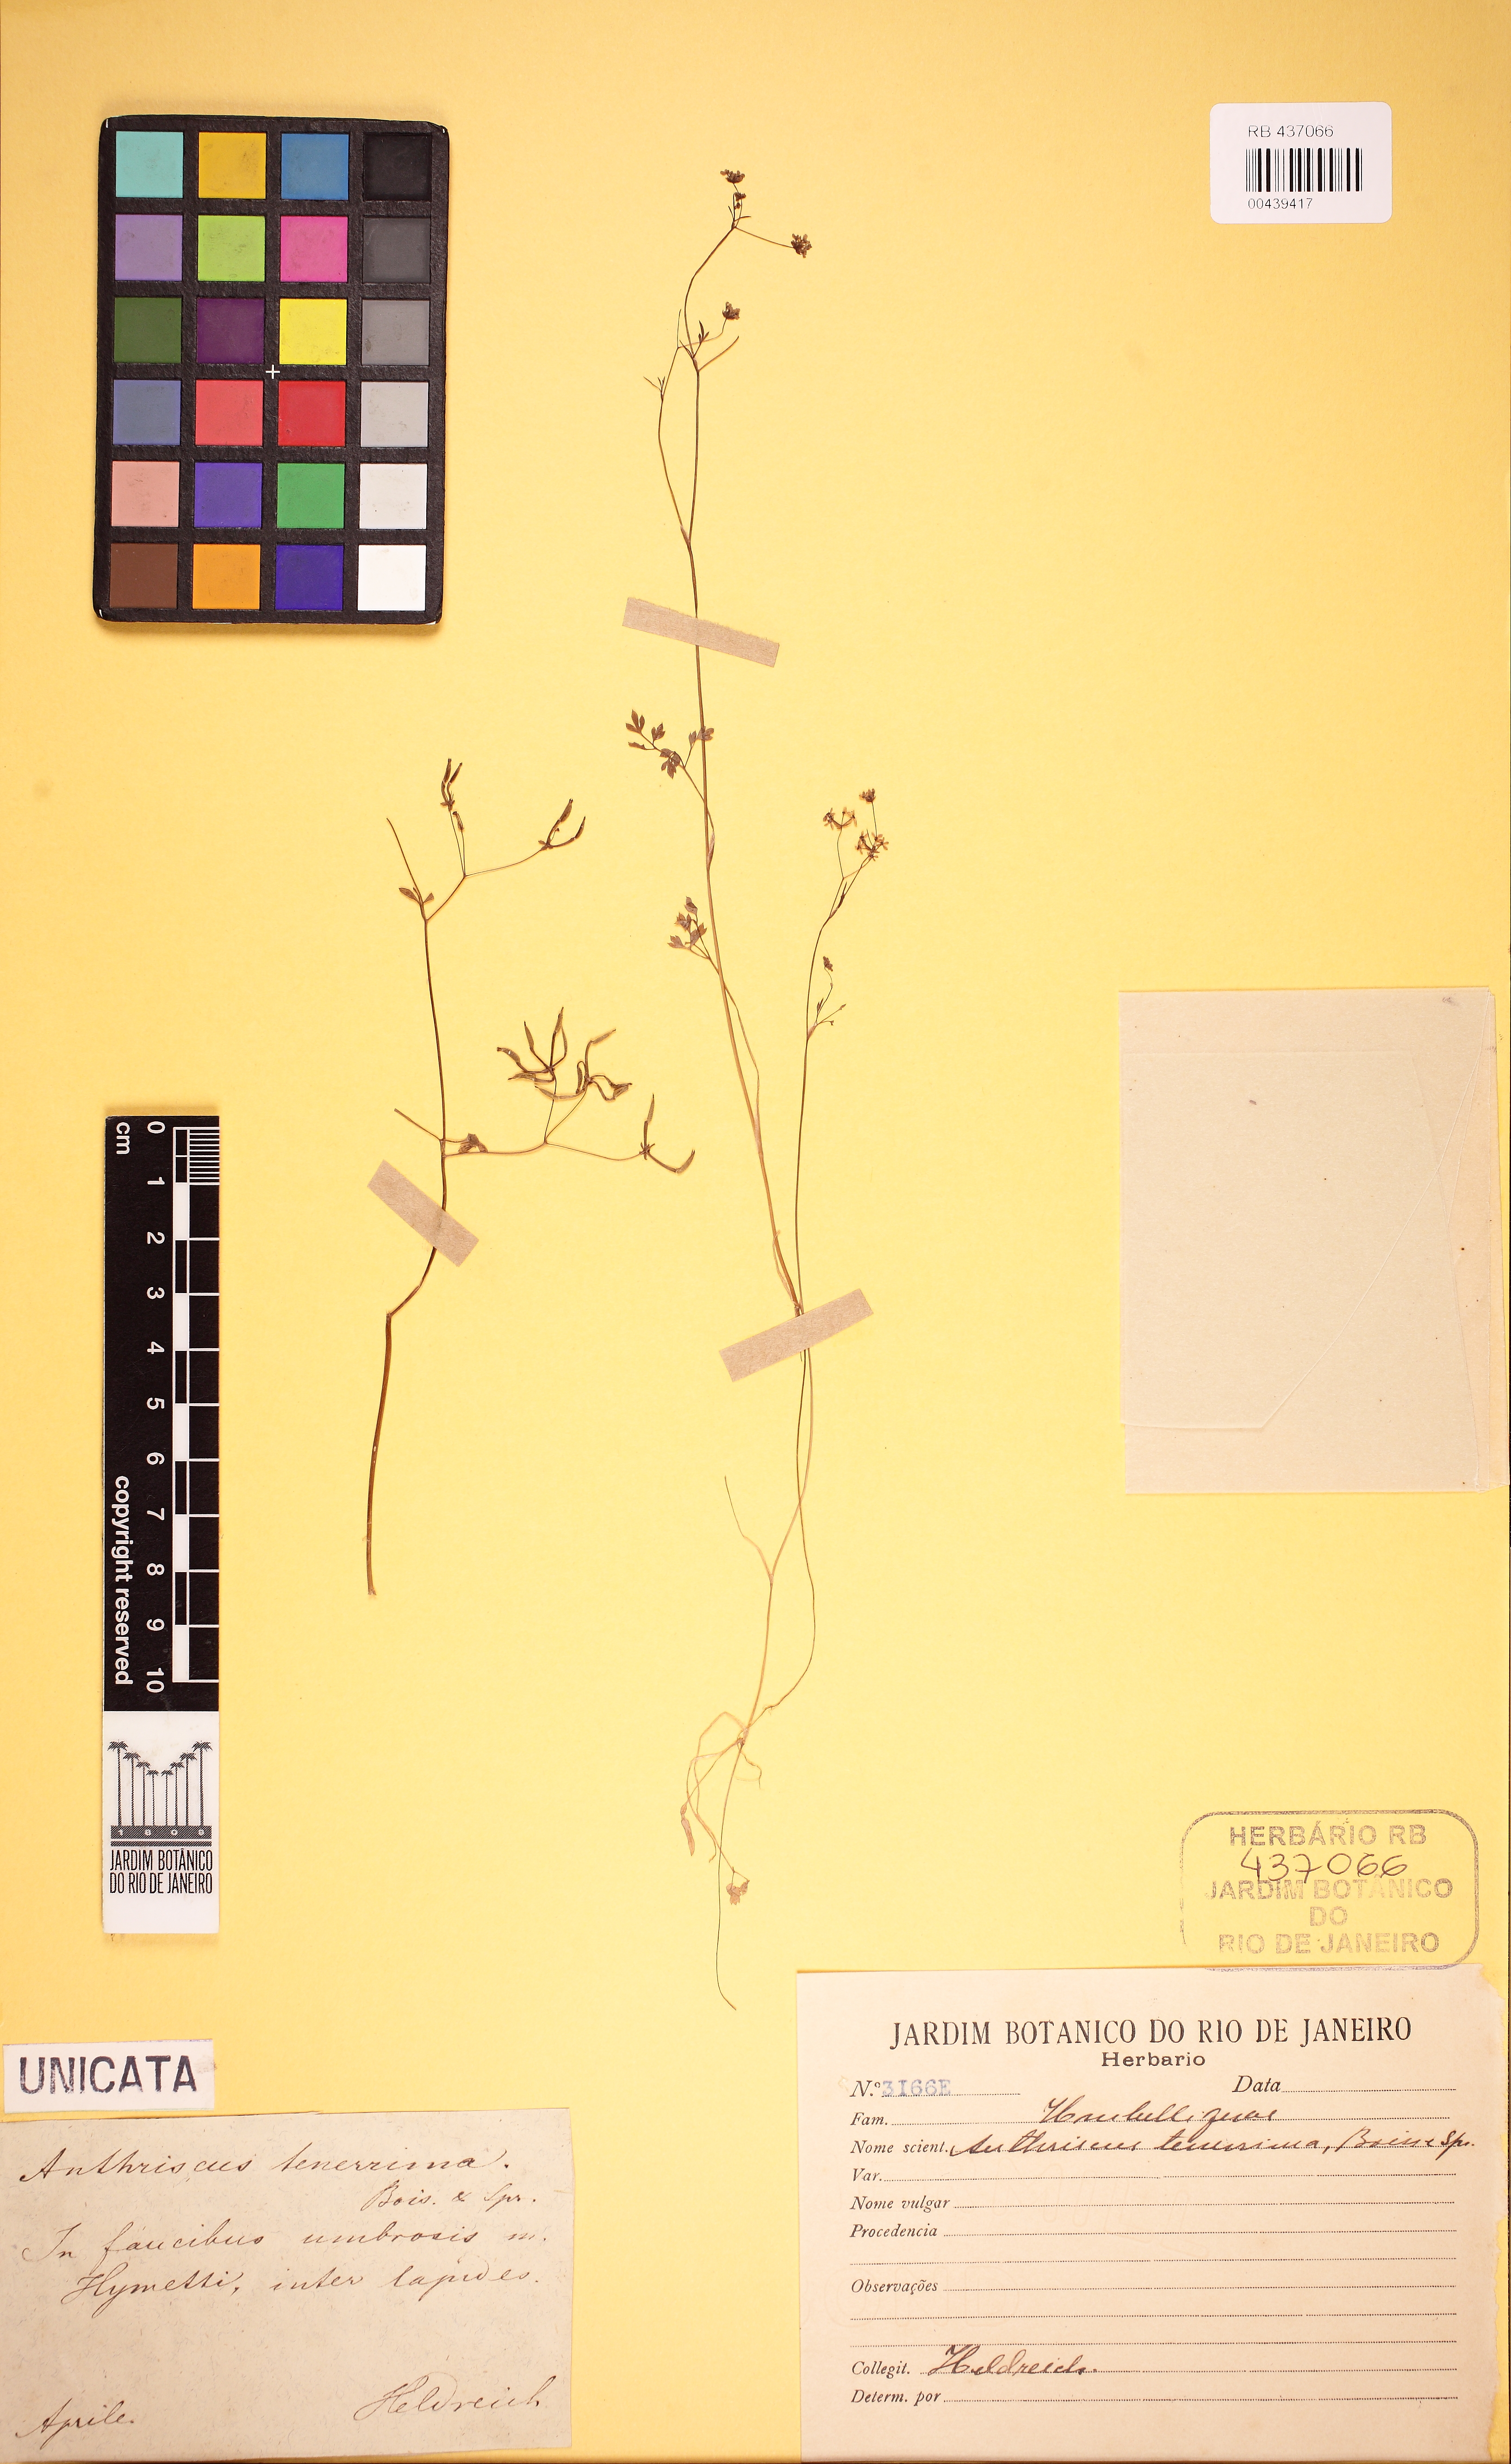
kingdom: Plantae
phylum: Tracheophyta
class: Magnoliopsida
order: Apiales
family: Apiaceae
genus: Anthriscus
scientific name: Anthriscus tenerrima
